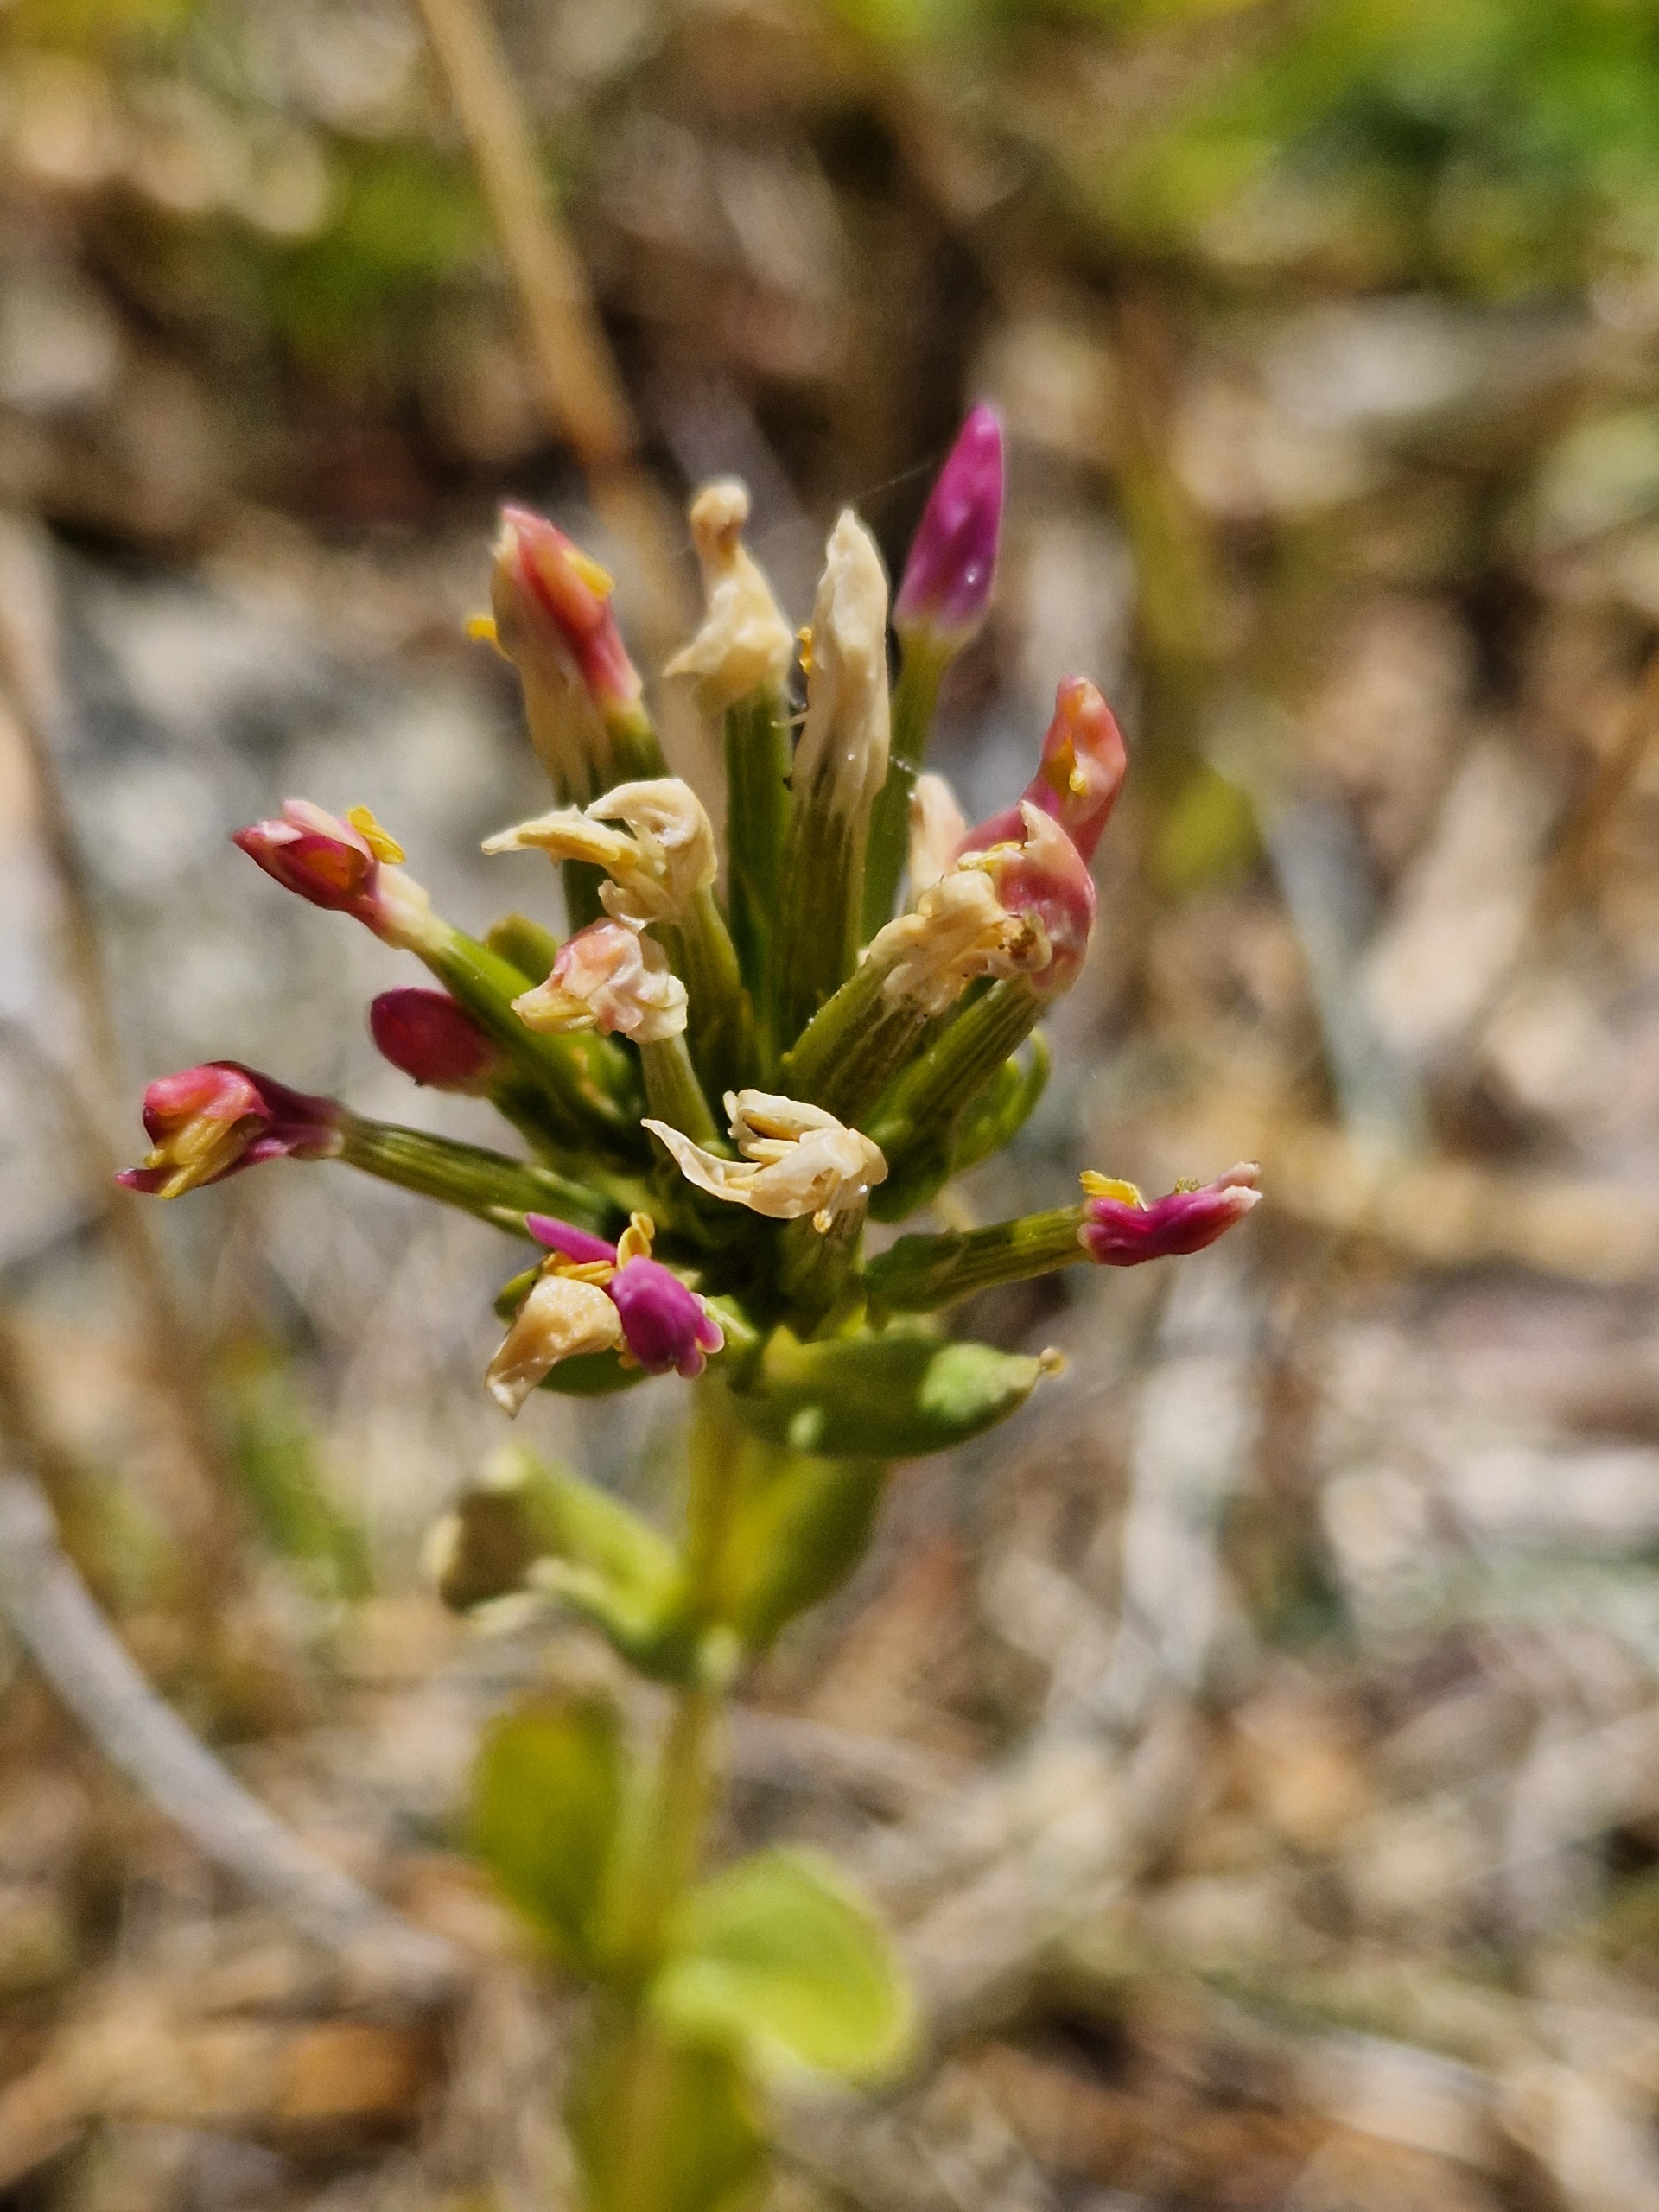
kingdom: Plantae
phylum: Tracheophyta
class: Magnoliopsida
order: Gentianales
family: Gentianaceae
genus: Centaurium
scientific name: Centaurium erythraea
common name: Hoved-tusindgylden
